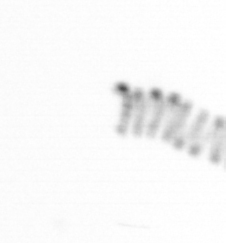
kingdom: Chromista
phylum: Ochrophyta
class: Bacillariophyceae
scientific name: Bacillariophyceae
